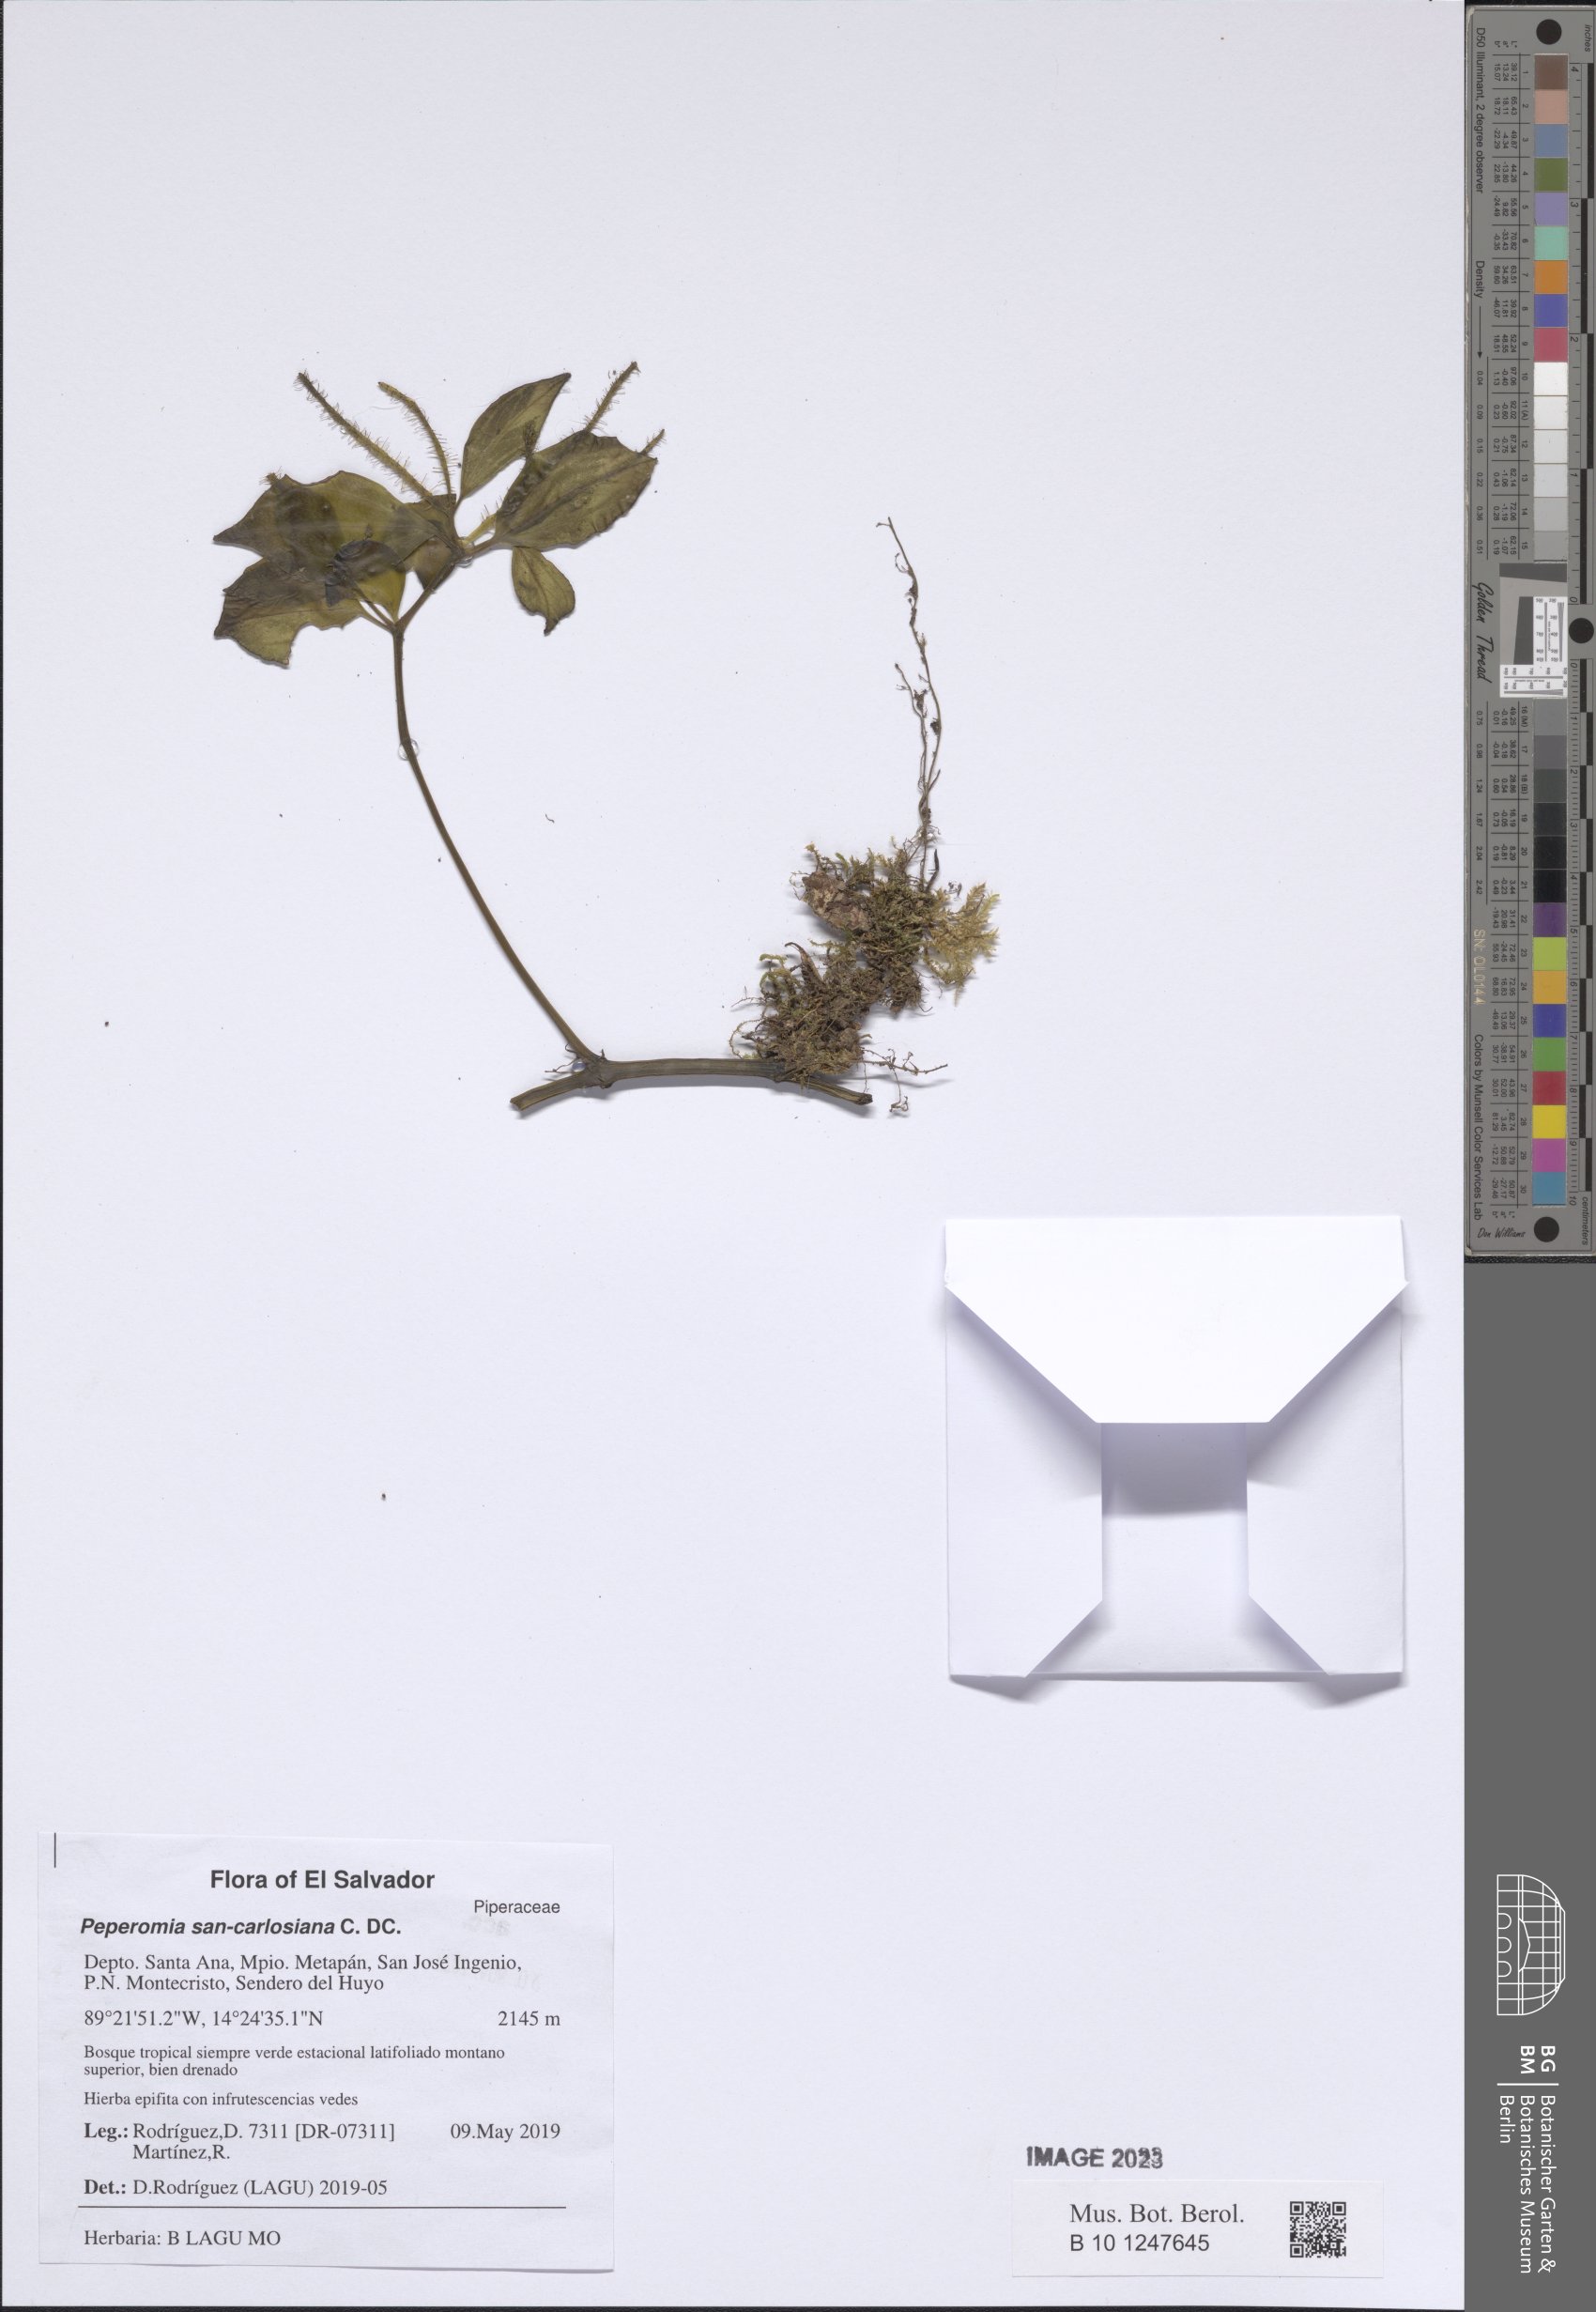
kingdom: Plantae
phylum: Tracheophyta
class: Magnoliopsida
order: Piperales
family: Piperaceae
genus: Peperomia
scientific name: Peperomia san-carlosiana
